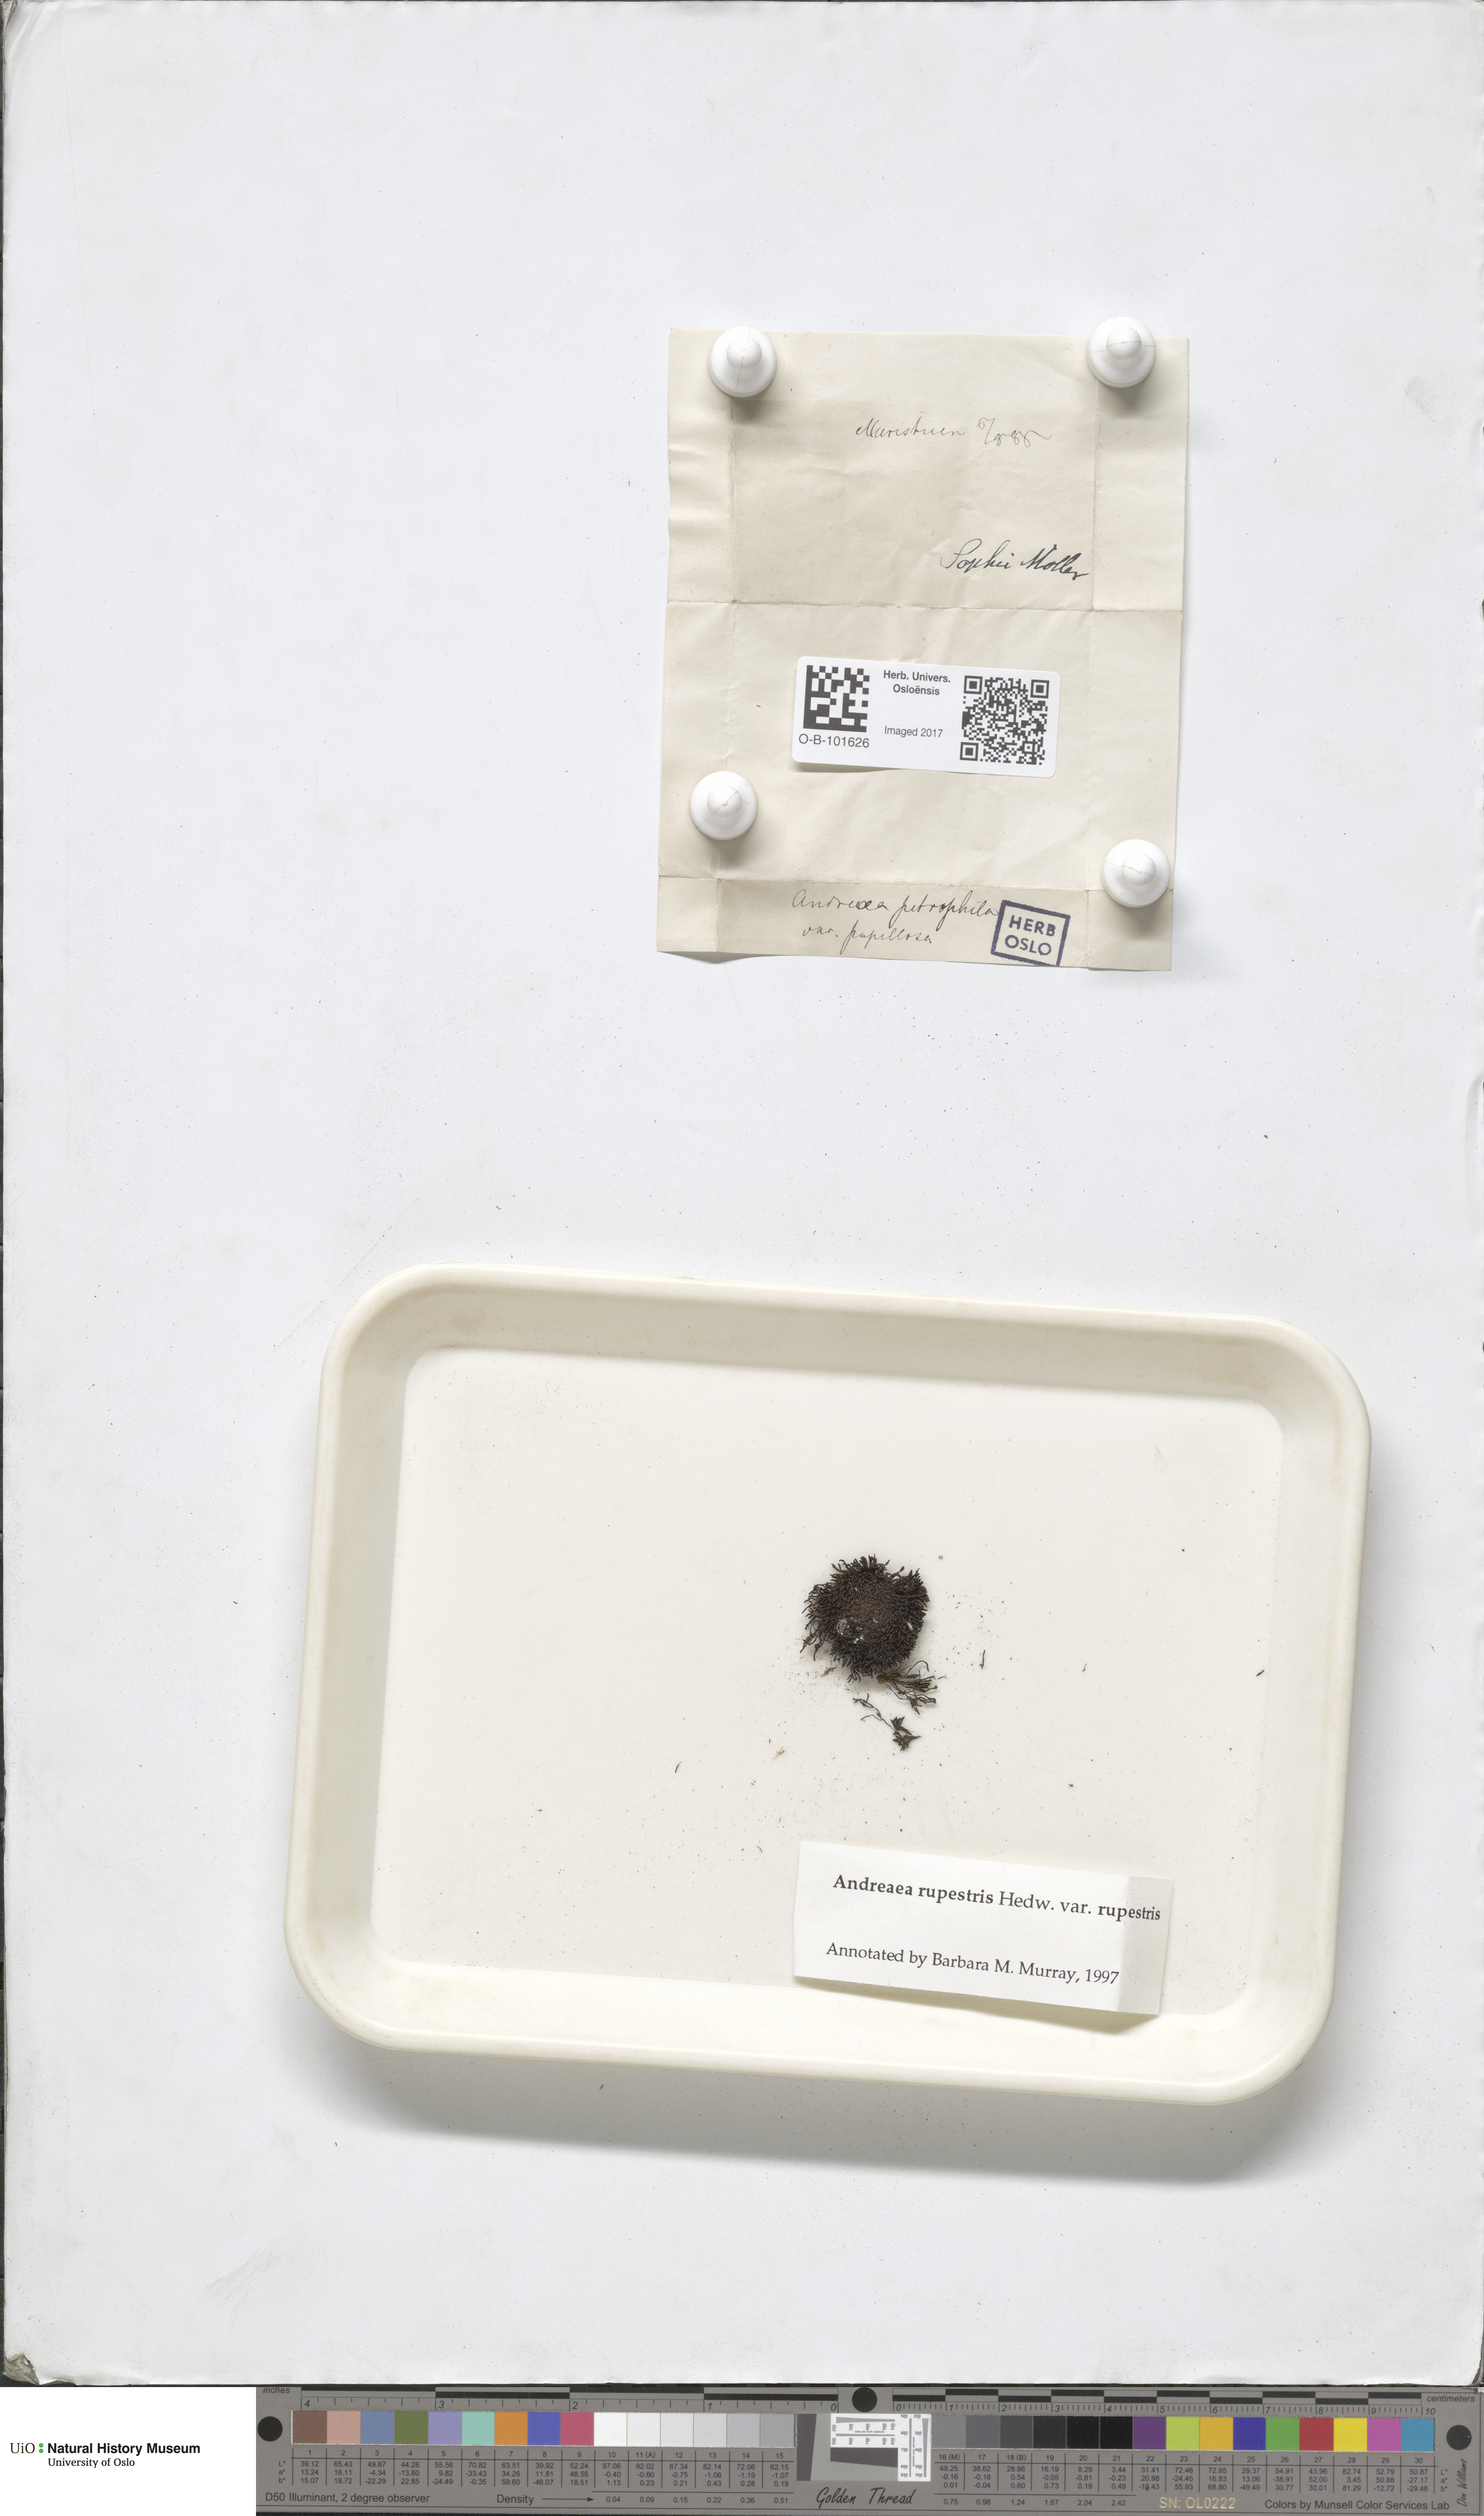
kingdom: Plantae
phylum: Bryophyta
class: Andreaeopsida
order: Andreaeales
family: Andreaeaceae
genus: Andreaea
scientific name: Andreaea rupestris
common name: Black rock moss
